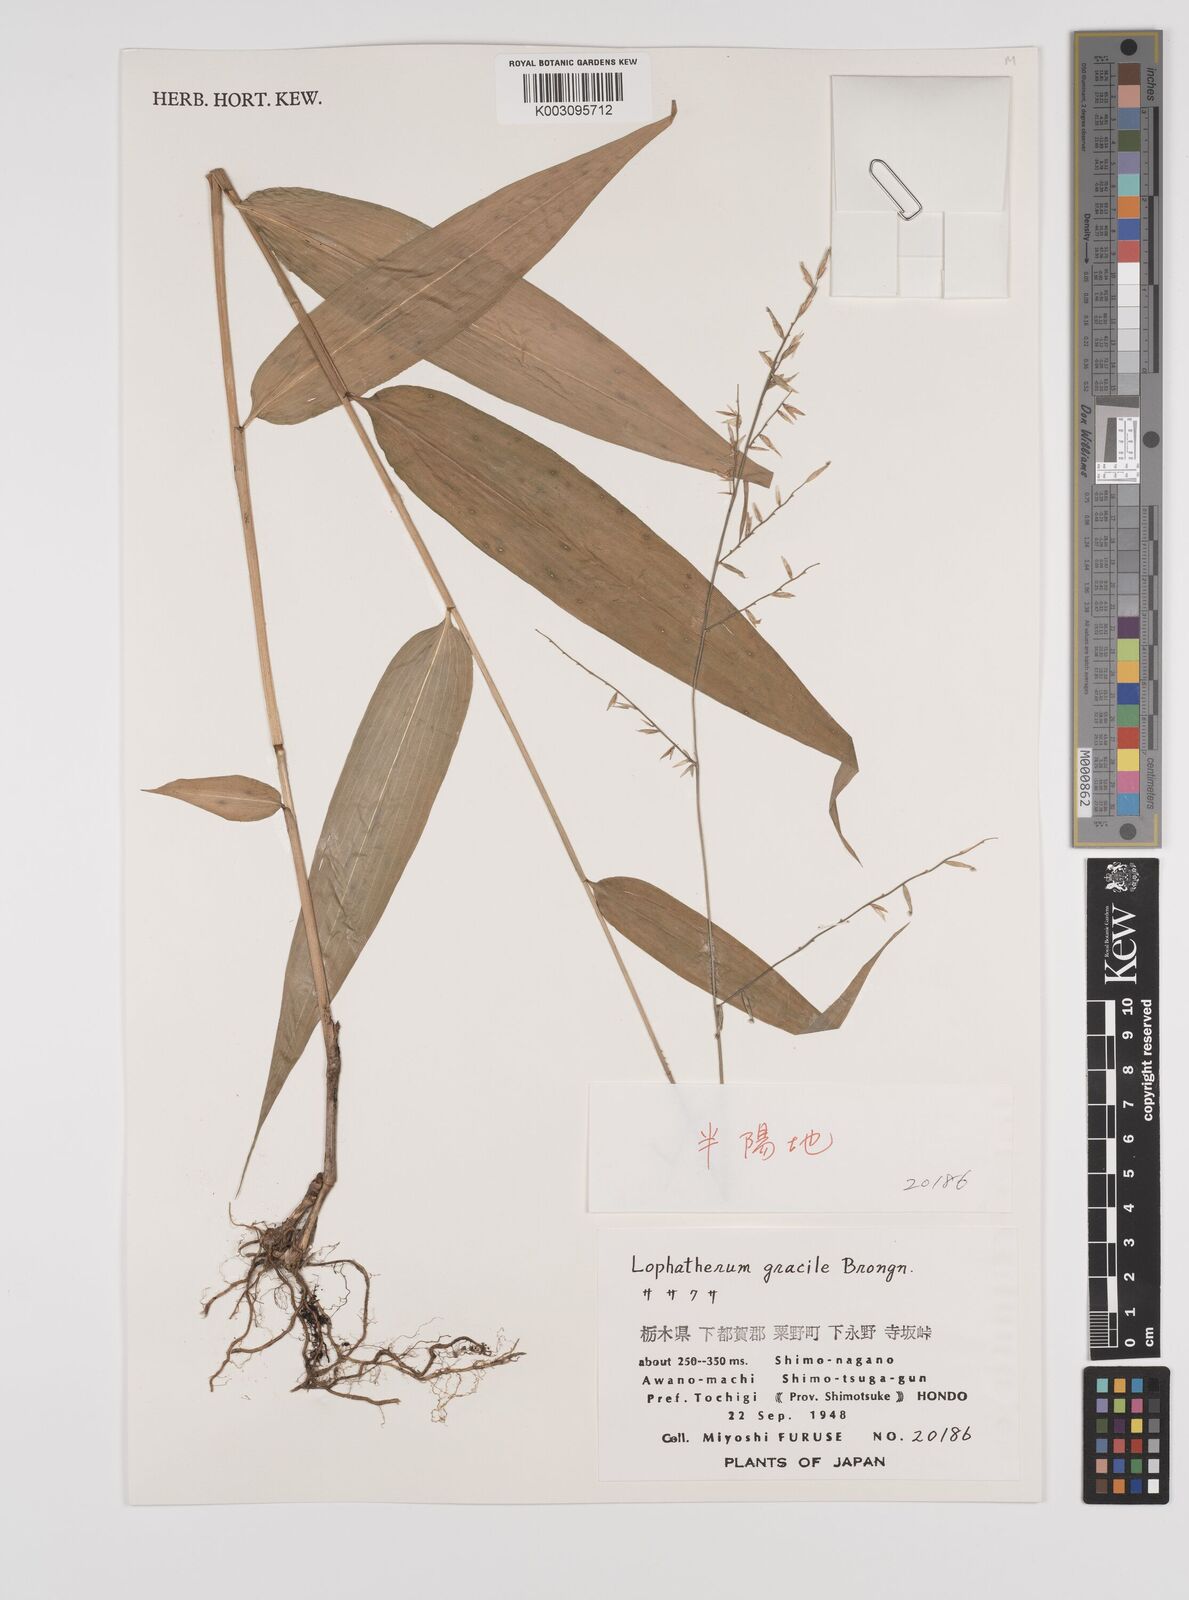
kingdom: Plantae
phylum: Tracheophyta
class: Liliopsida
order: Poales
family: Poaceae
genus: Lophatherum
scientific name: Lophatherum gracile
